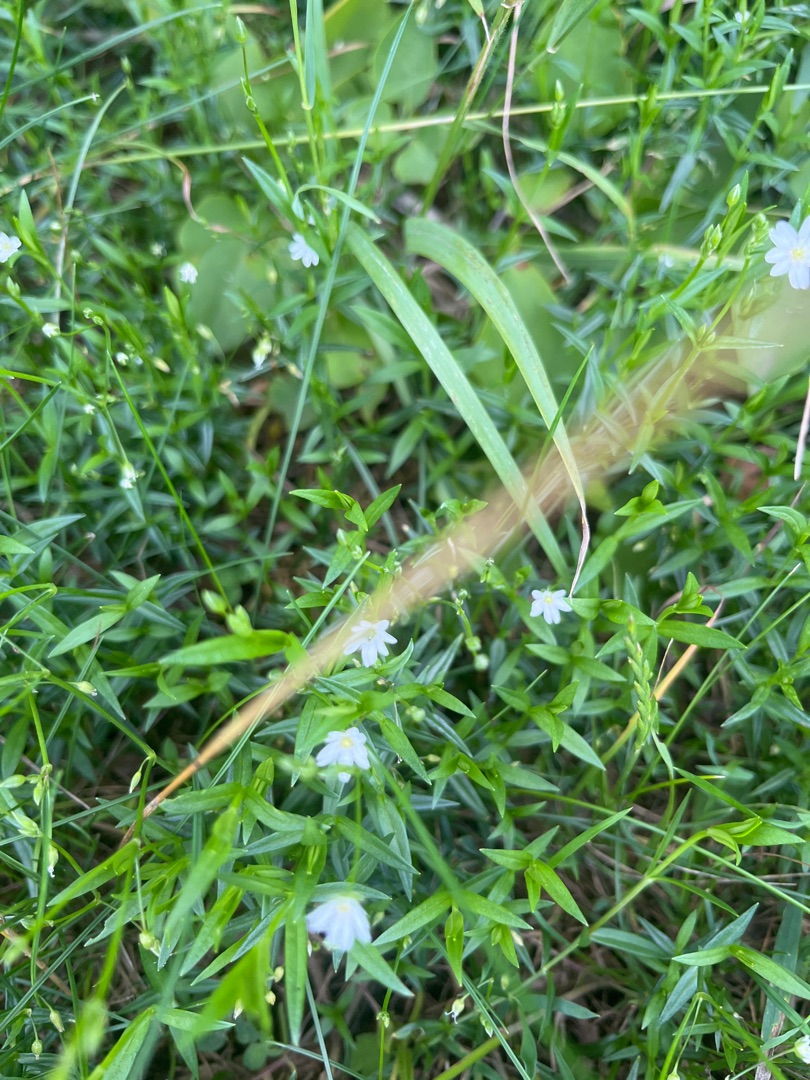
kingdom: Plantae
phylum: Tracheophyta
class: Magnoliopsida
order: Caryophyllales
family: Caryophyllaceae
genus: Stellaria
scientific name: Stellaria graminea
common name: Græsbladet fladstjerne
